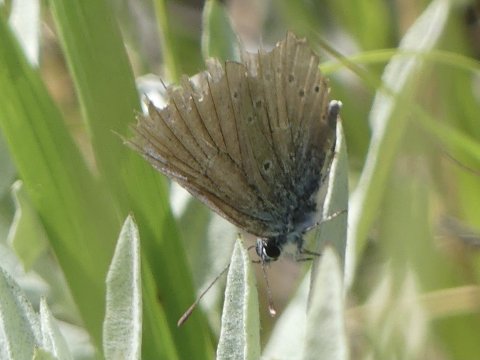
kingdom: Animalia
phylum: Arthropoda
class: Insecta
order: Lepidoptera
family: Lycaenidae
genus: Glaucopsyche
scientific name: Glaucopsyche lygdamus
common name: Silvery Blue
